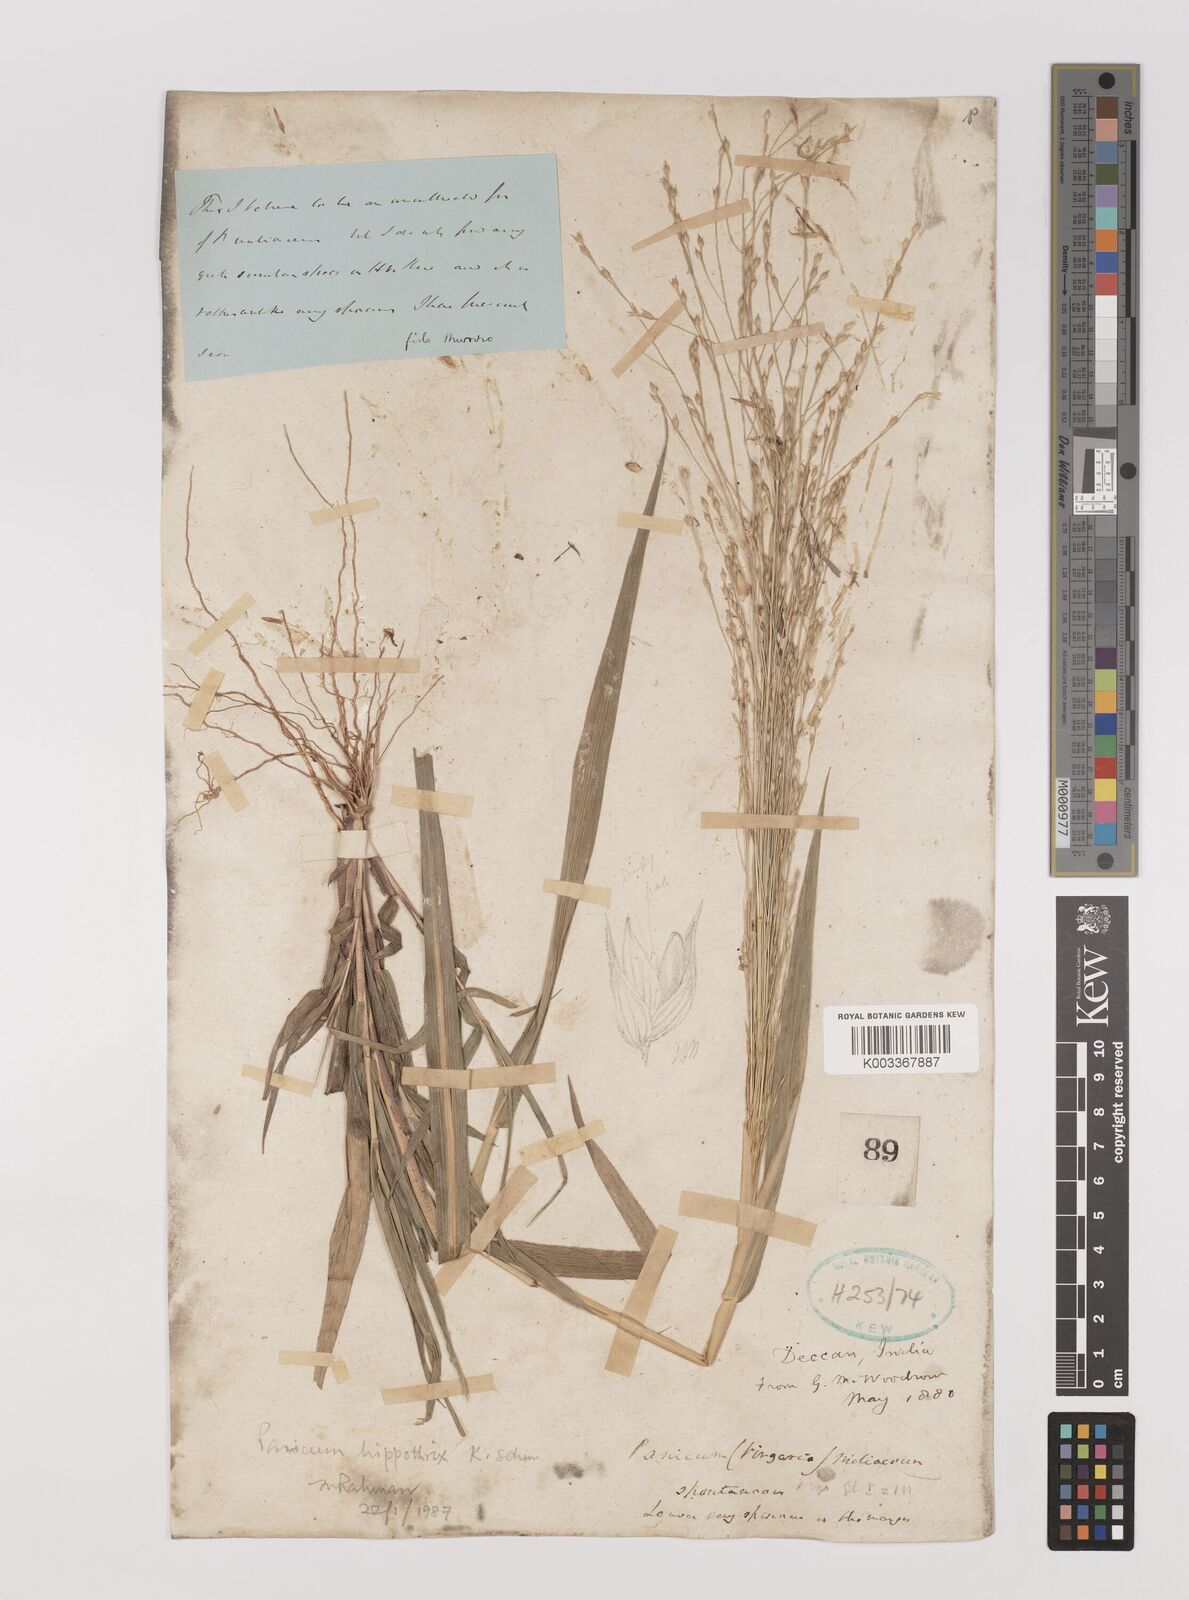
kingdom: Plantae
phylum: Tracheophyta
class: Liliopsida
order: Poales
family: Poaceae
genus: Panicum
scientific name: Panicum hippothrix
